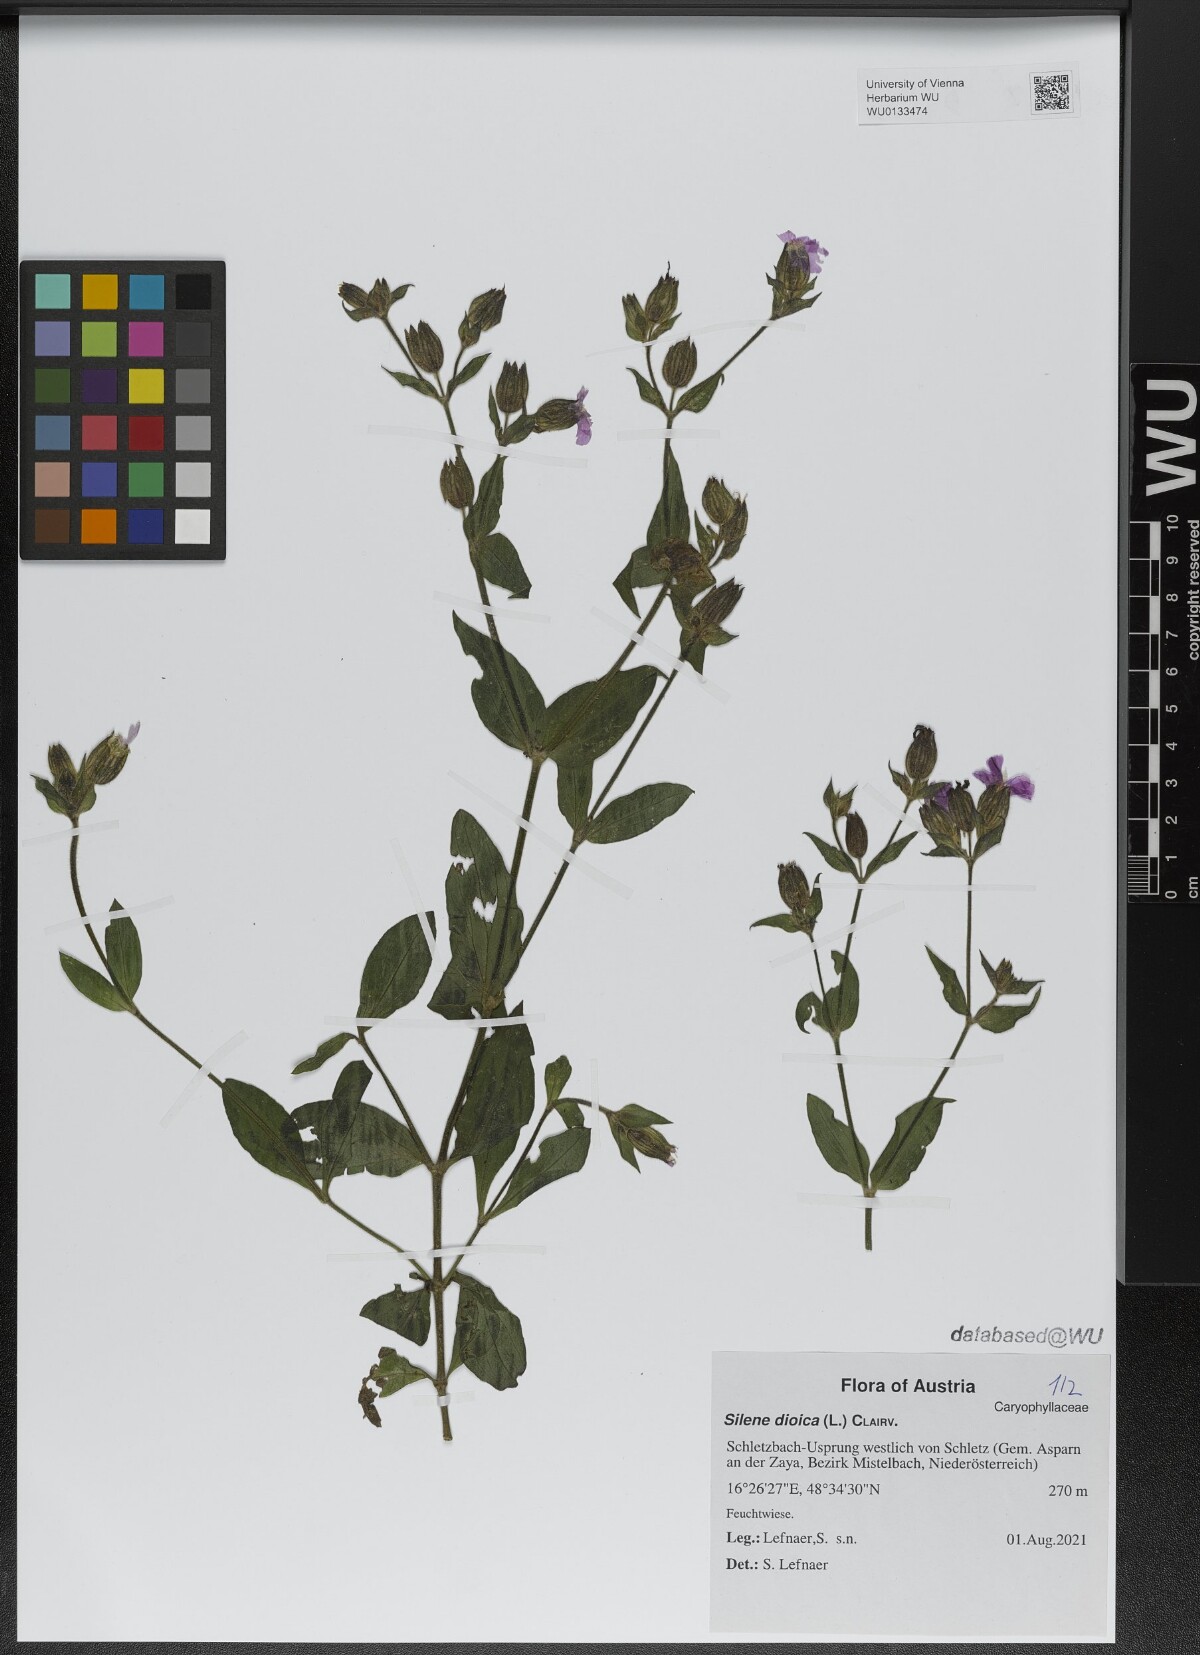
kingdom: Plantae
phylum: Tracheophyta
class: Magnoliopsida
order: Caryophyllales
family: Caryophyllaceae
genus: Silene
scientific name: Silene dioica
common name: Red campion
